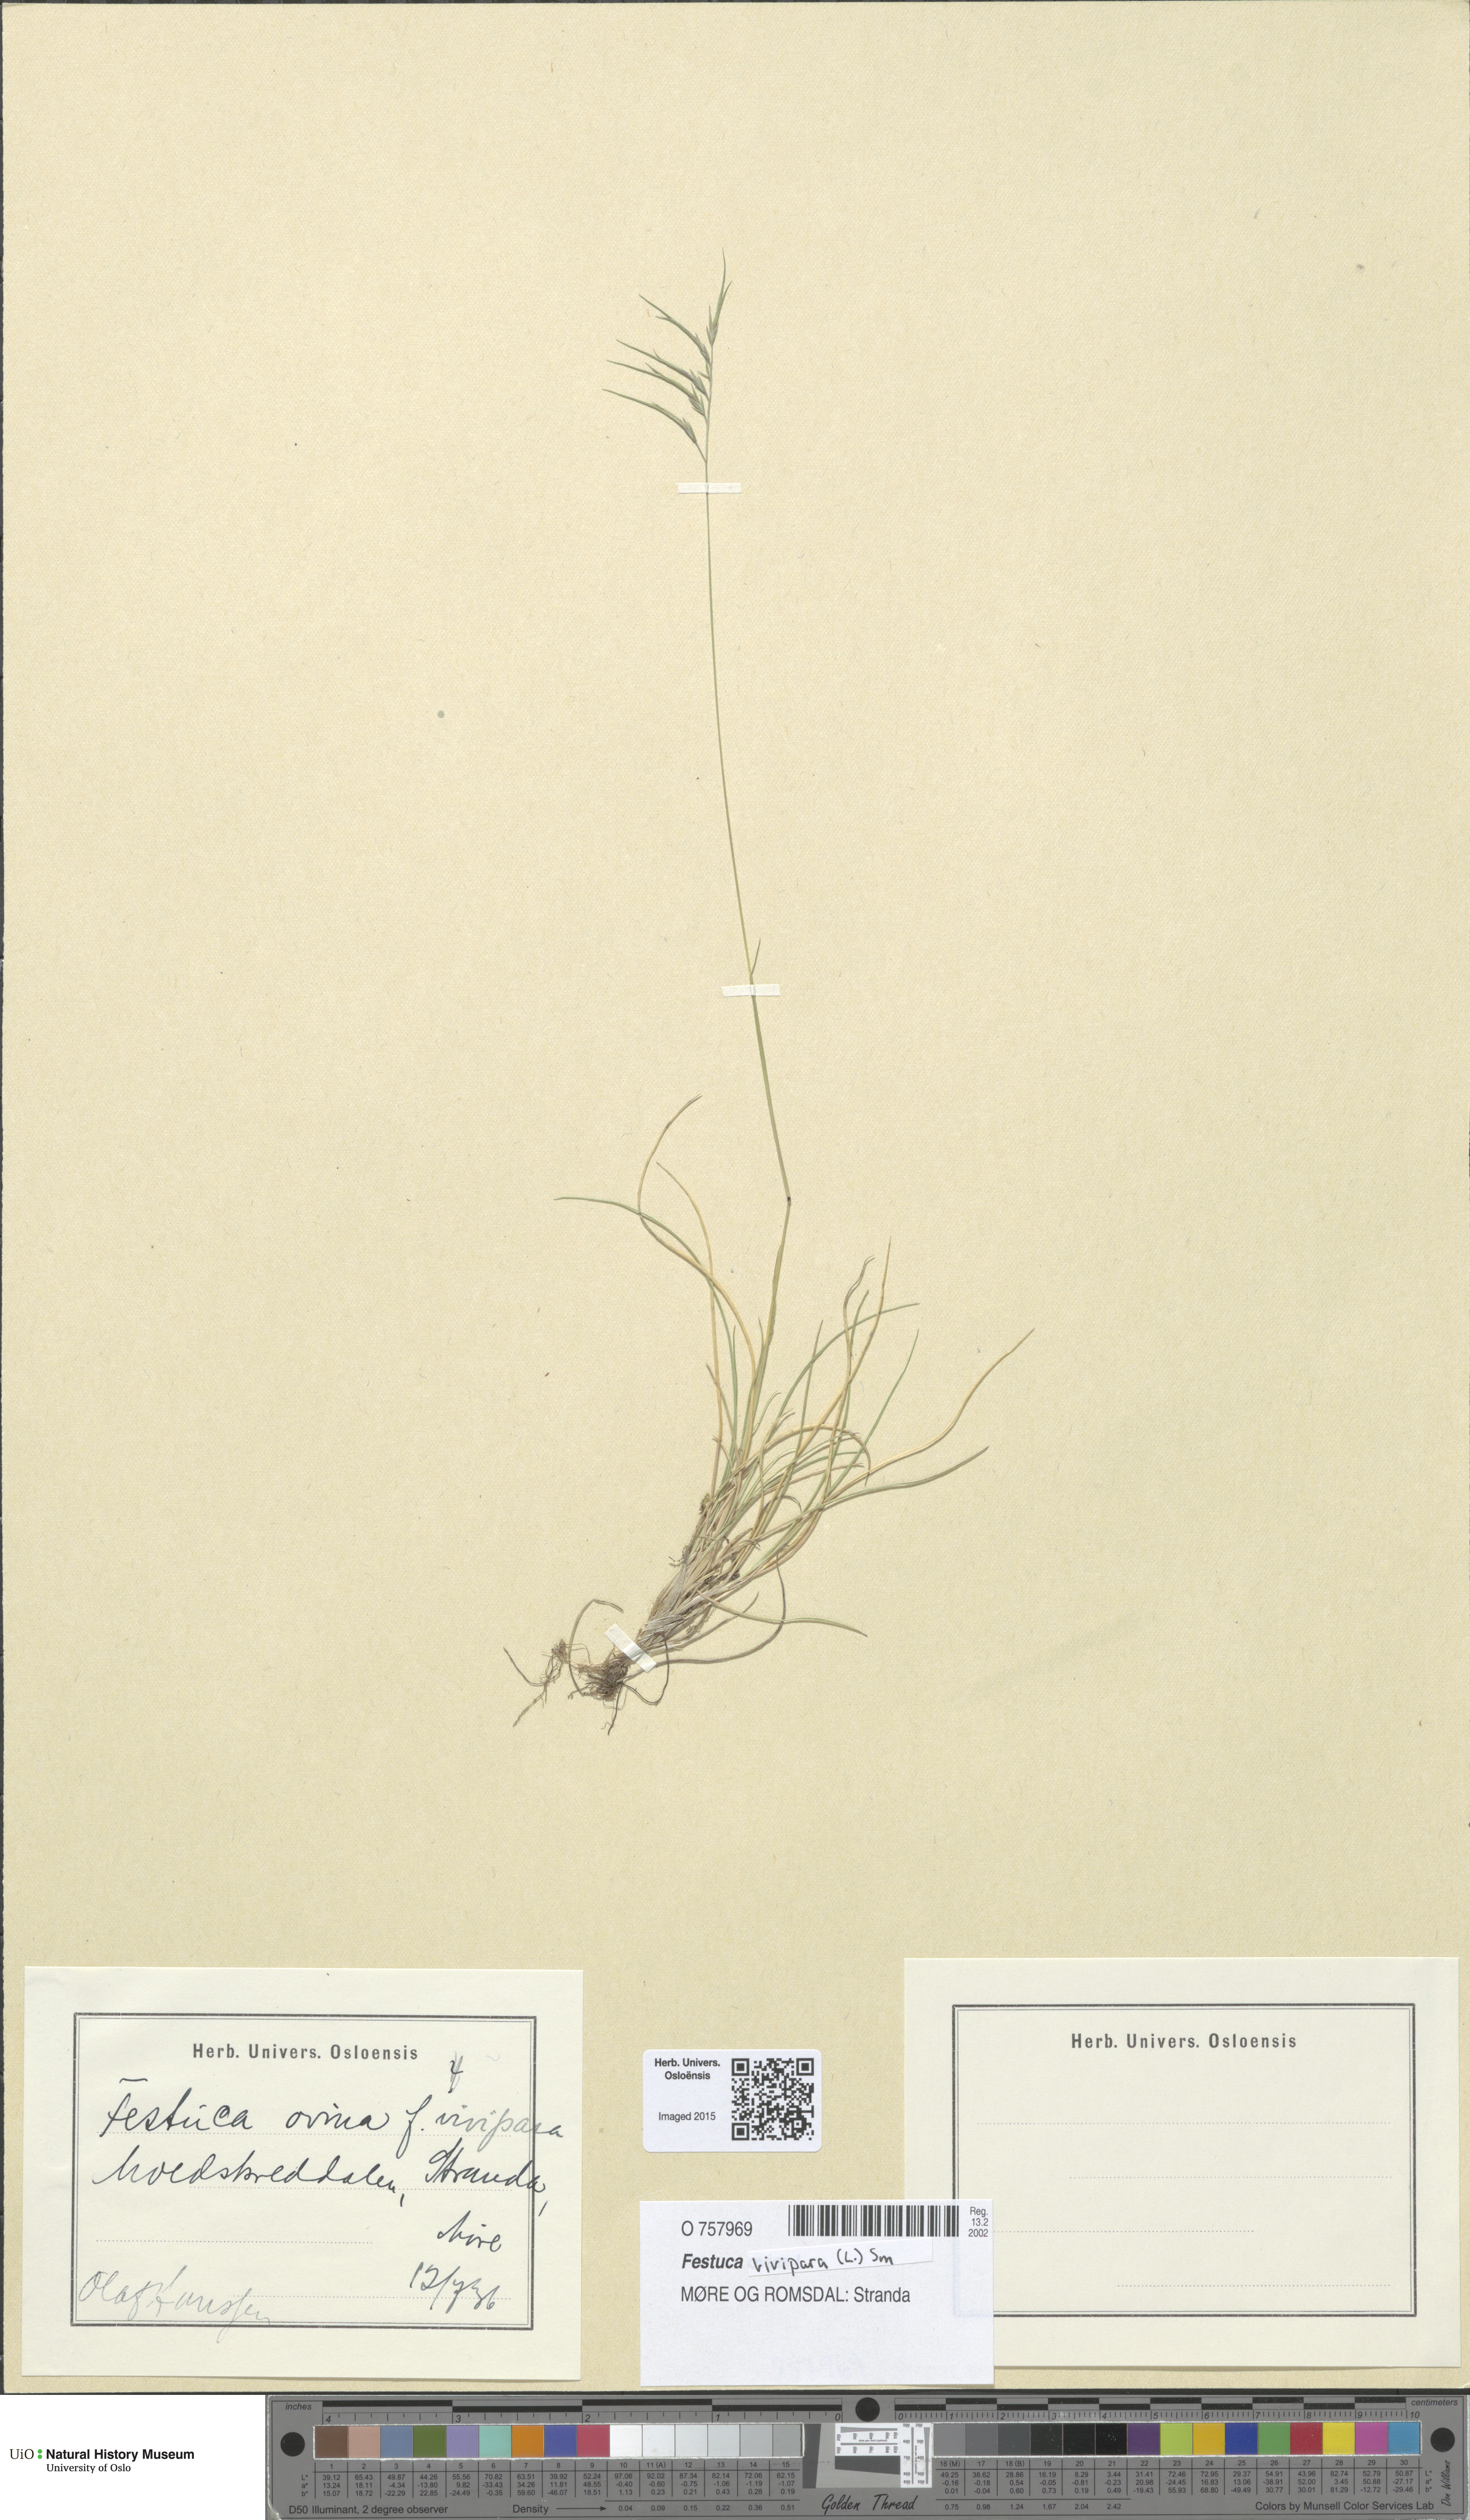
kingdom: Plantae
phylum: Tracheophyta
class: Liliopsida
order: Poales
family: Poaceae
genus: Festuca
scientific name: Festuca vivipara
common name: Viviparous sheep's-fescue
